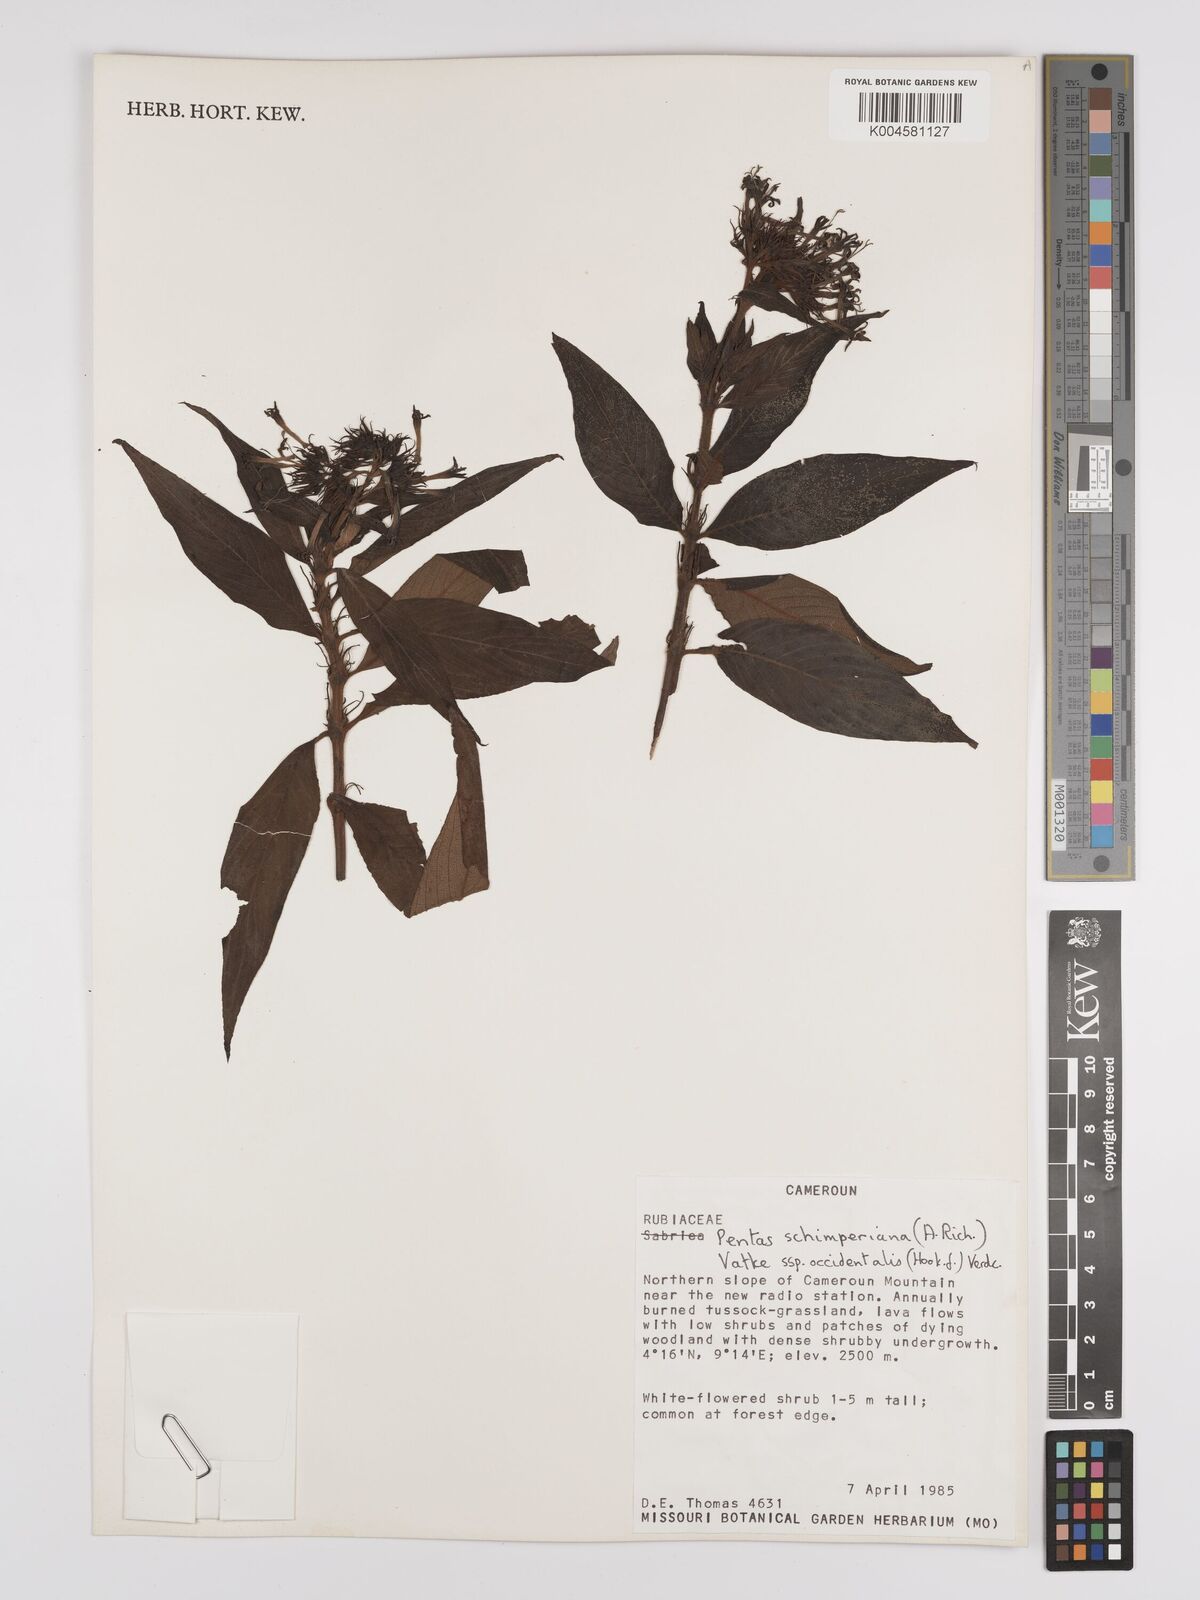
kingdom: Plantae
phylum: Tracheophyta
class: Magnoliopsida
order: Gentianales
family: Rubiaceae
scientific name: Rubiaceae
